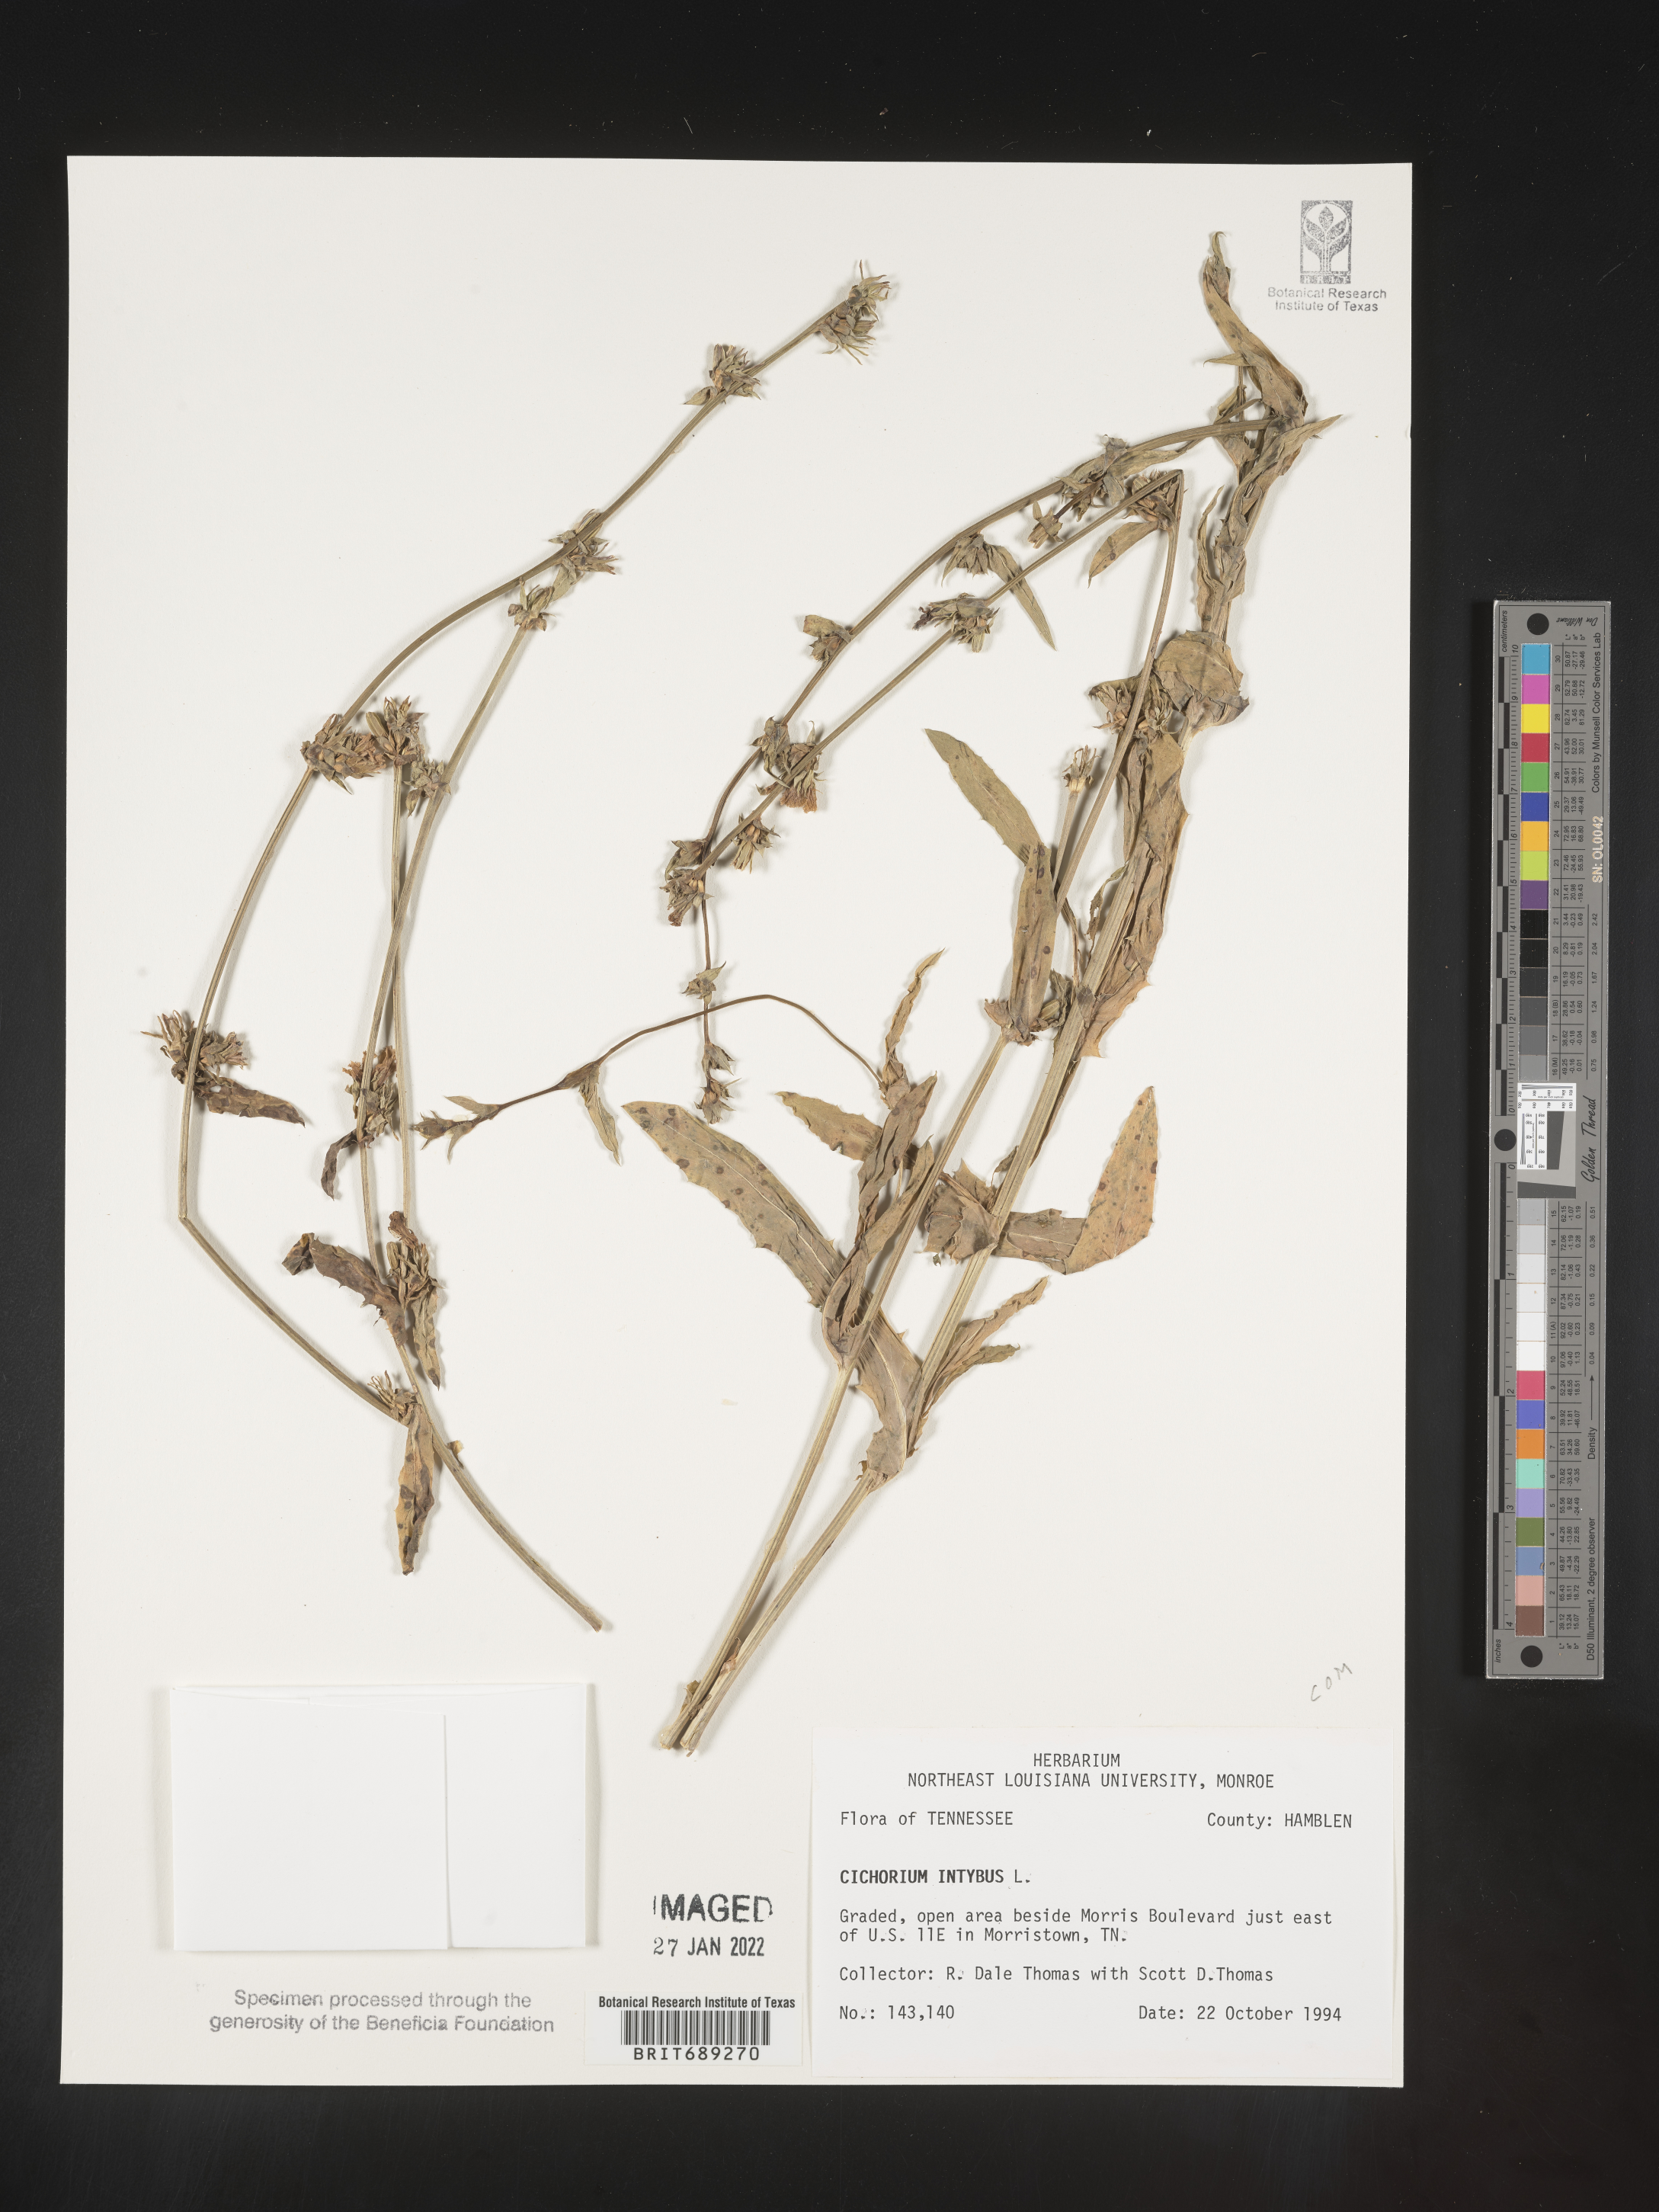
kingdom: Plantae
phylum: Tracheophyta
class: Magnoliopsida
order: Asterales
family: Asteraceae
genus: Cichorium
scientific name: Cichorium intybus
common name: Chicory
